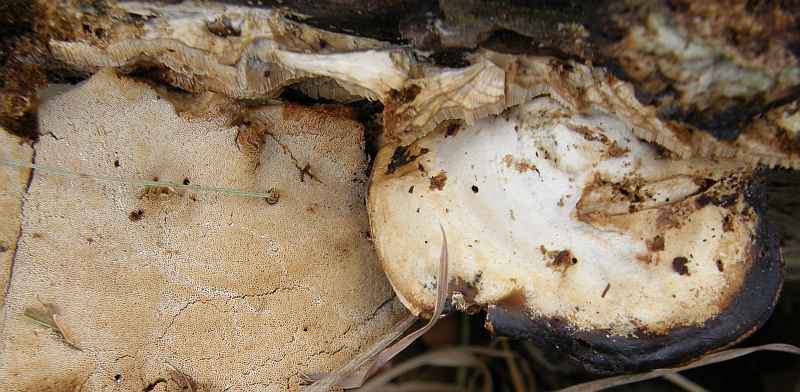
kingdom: Fungi
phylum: Basidiomycota
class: Agaricomycetes
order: Polyporales
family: Phanerochaetaceae
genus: Bjerkandera
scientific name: Bjerkandera fumosa
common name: grågul sodporesvamp
